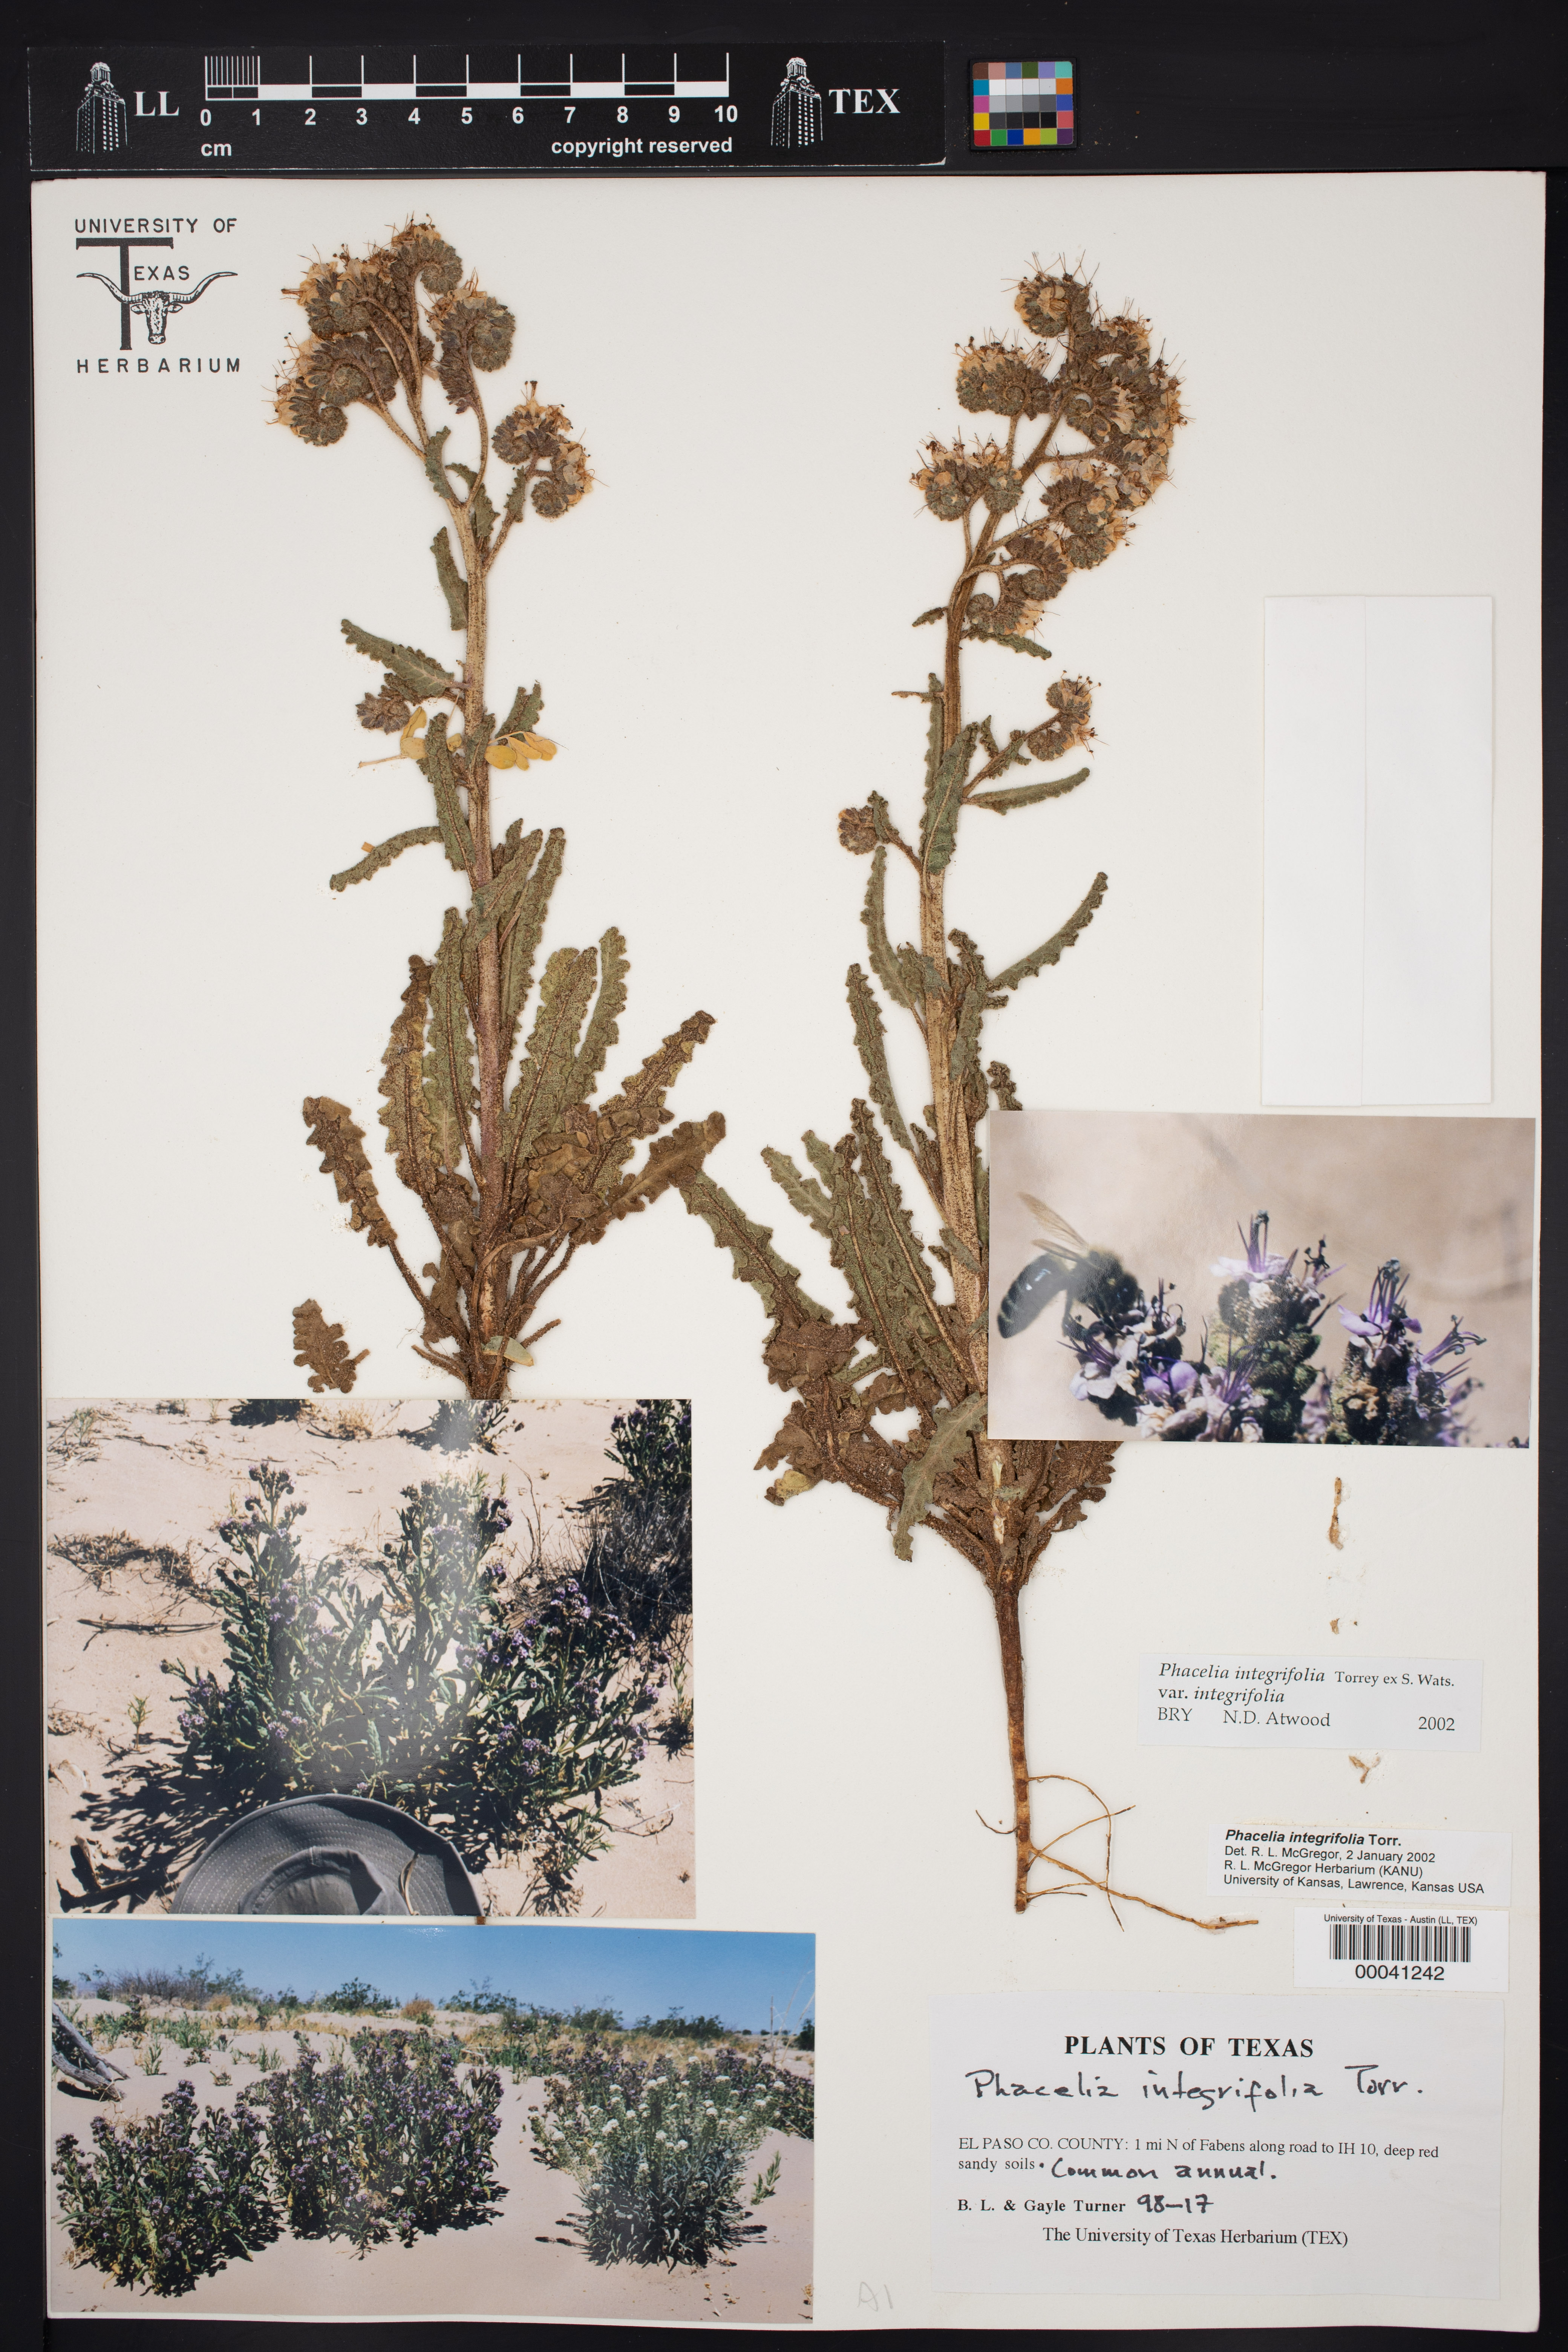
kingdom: Plantae
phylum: Tracheophyta
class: Magnoliopsida
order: Boraginales
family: Hydrophyllaceae
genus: Phacelia
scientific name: Phacelia integrifolia
